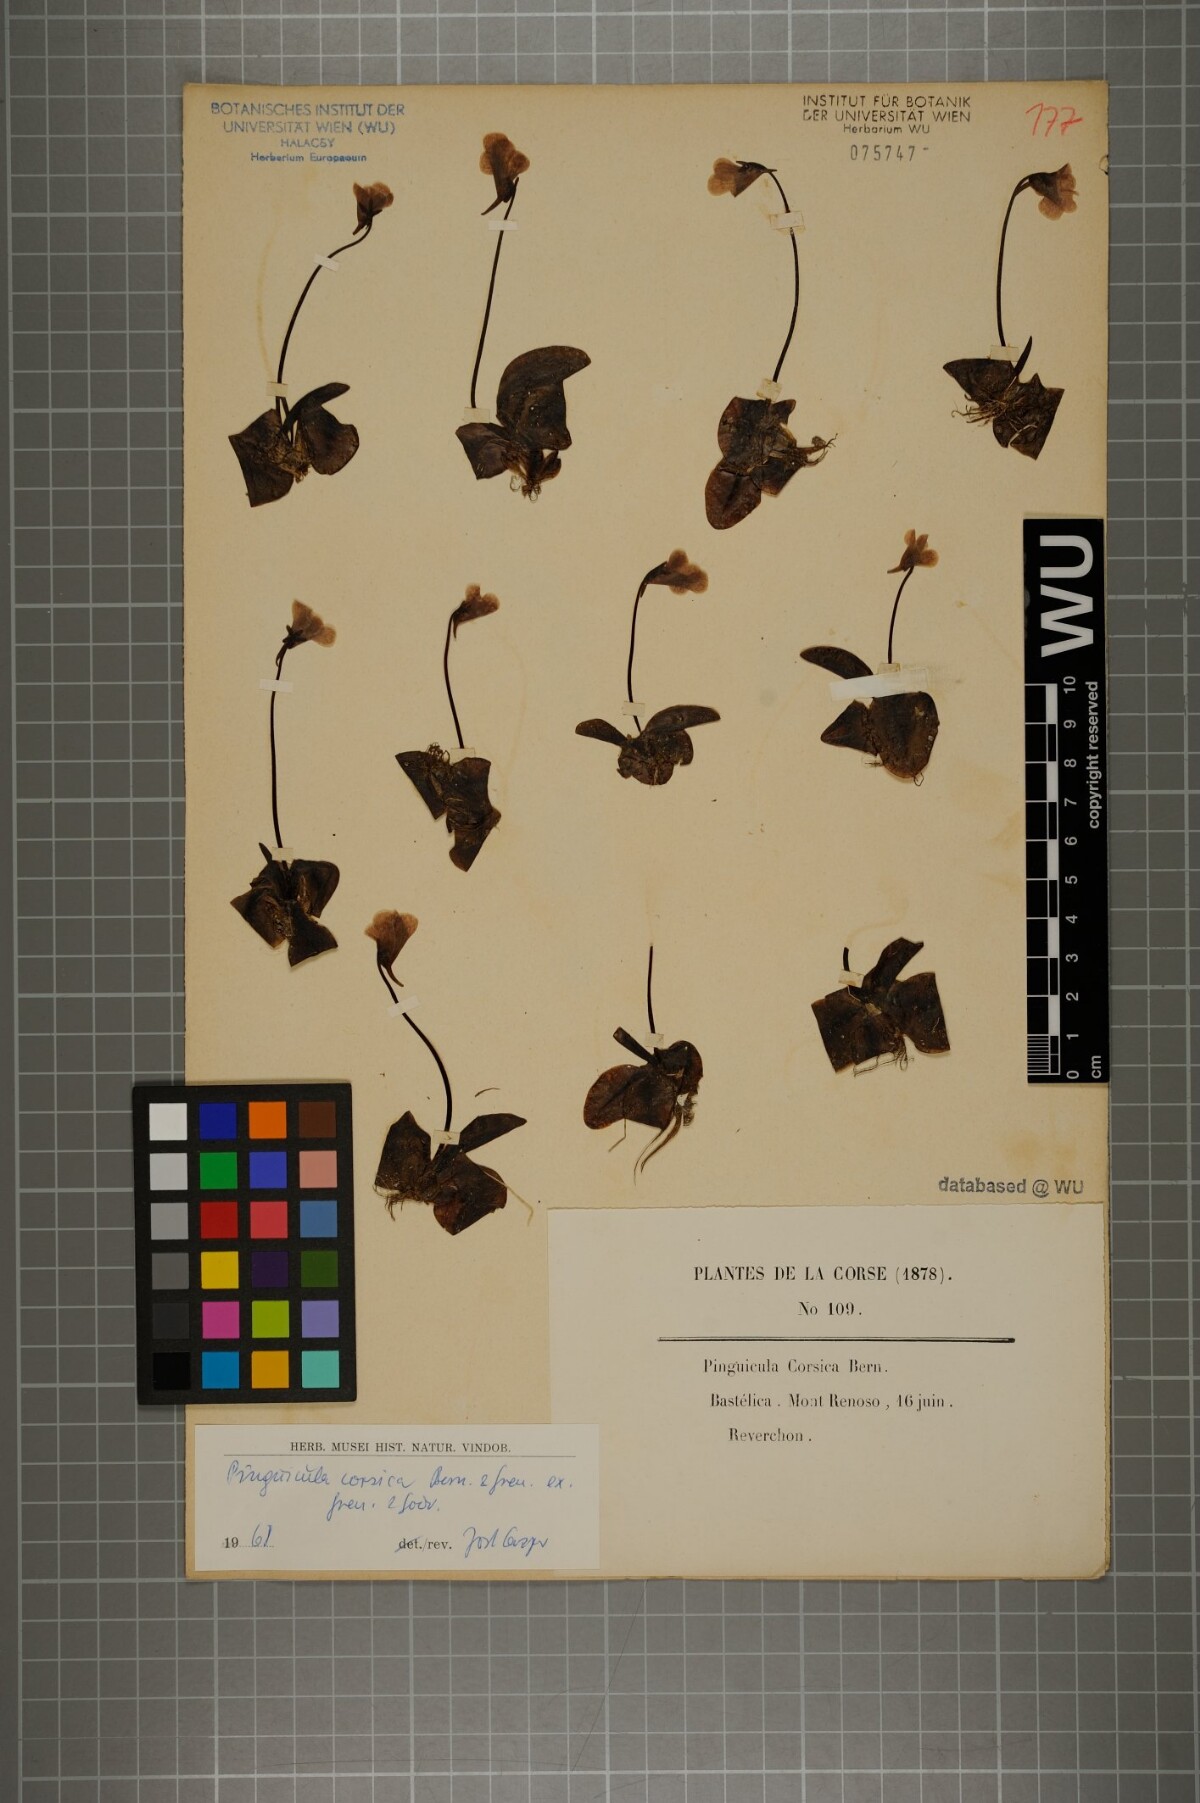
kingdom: Plantae
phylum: Tracheophyta
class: Magnoliopsida
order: Lamiales
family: Lentibulariaceae
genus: Pinguicula
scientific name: Pinguicula corsica
